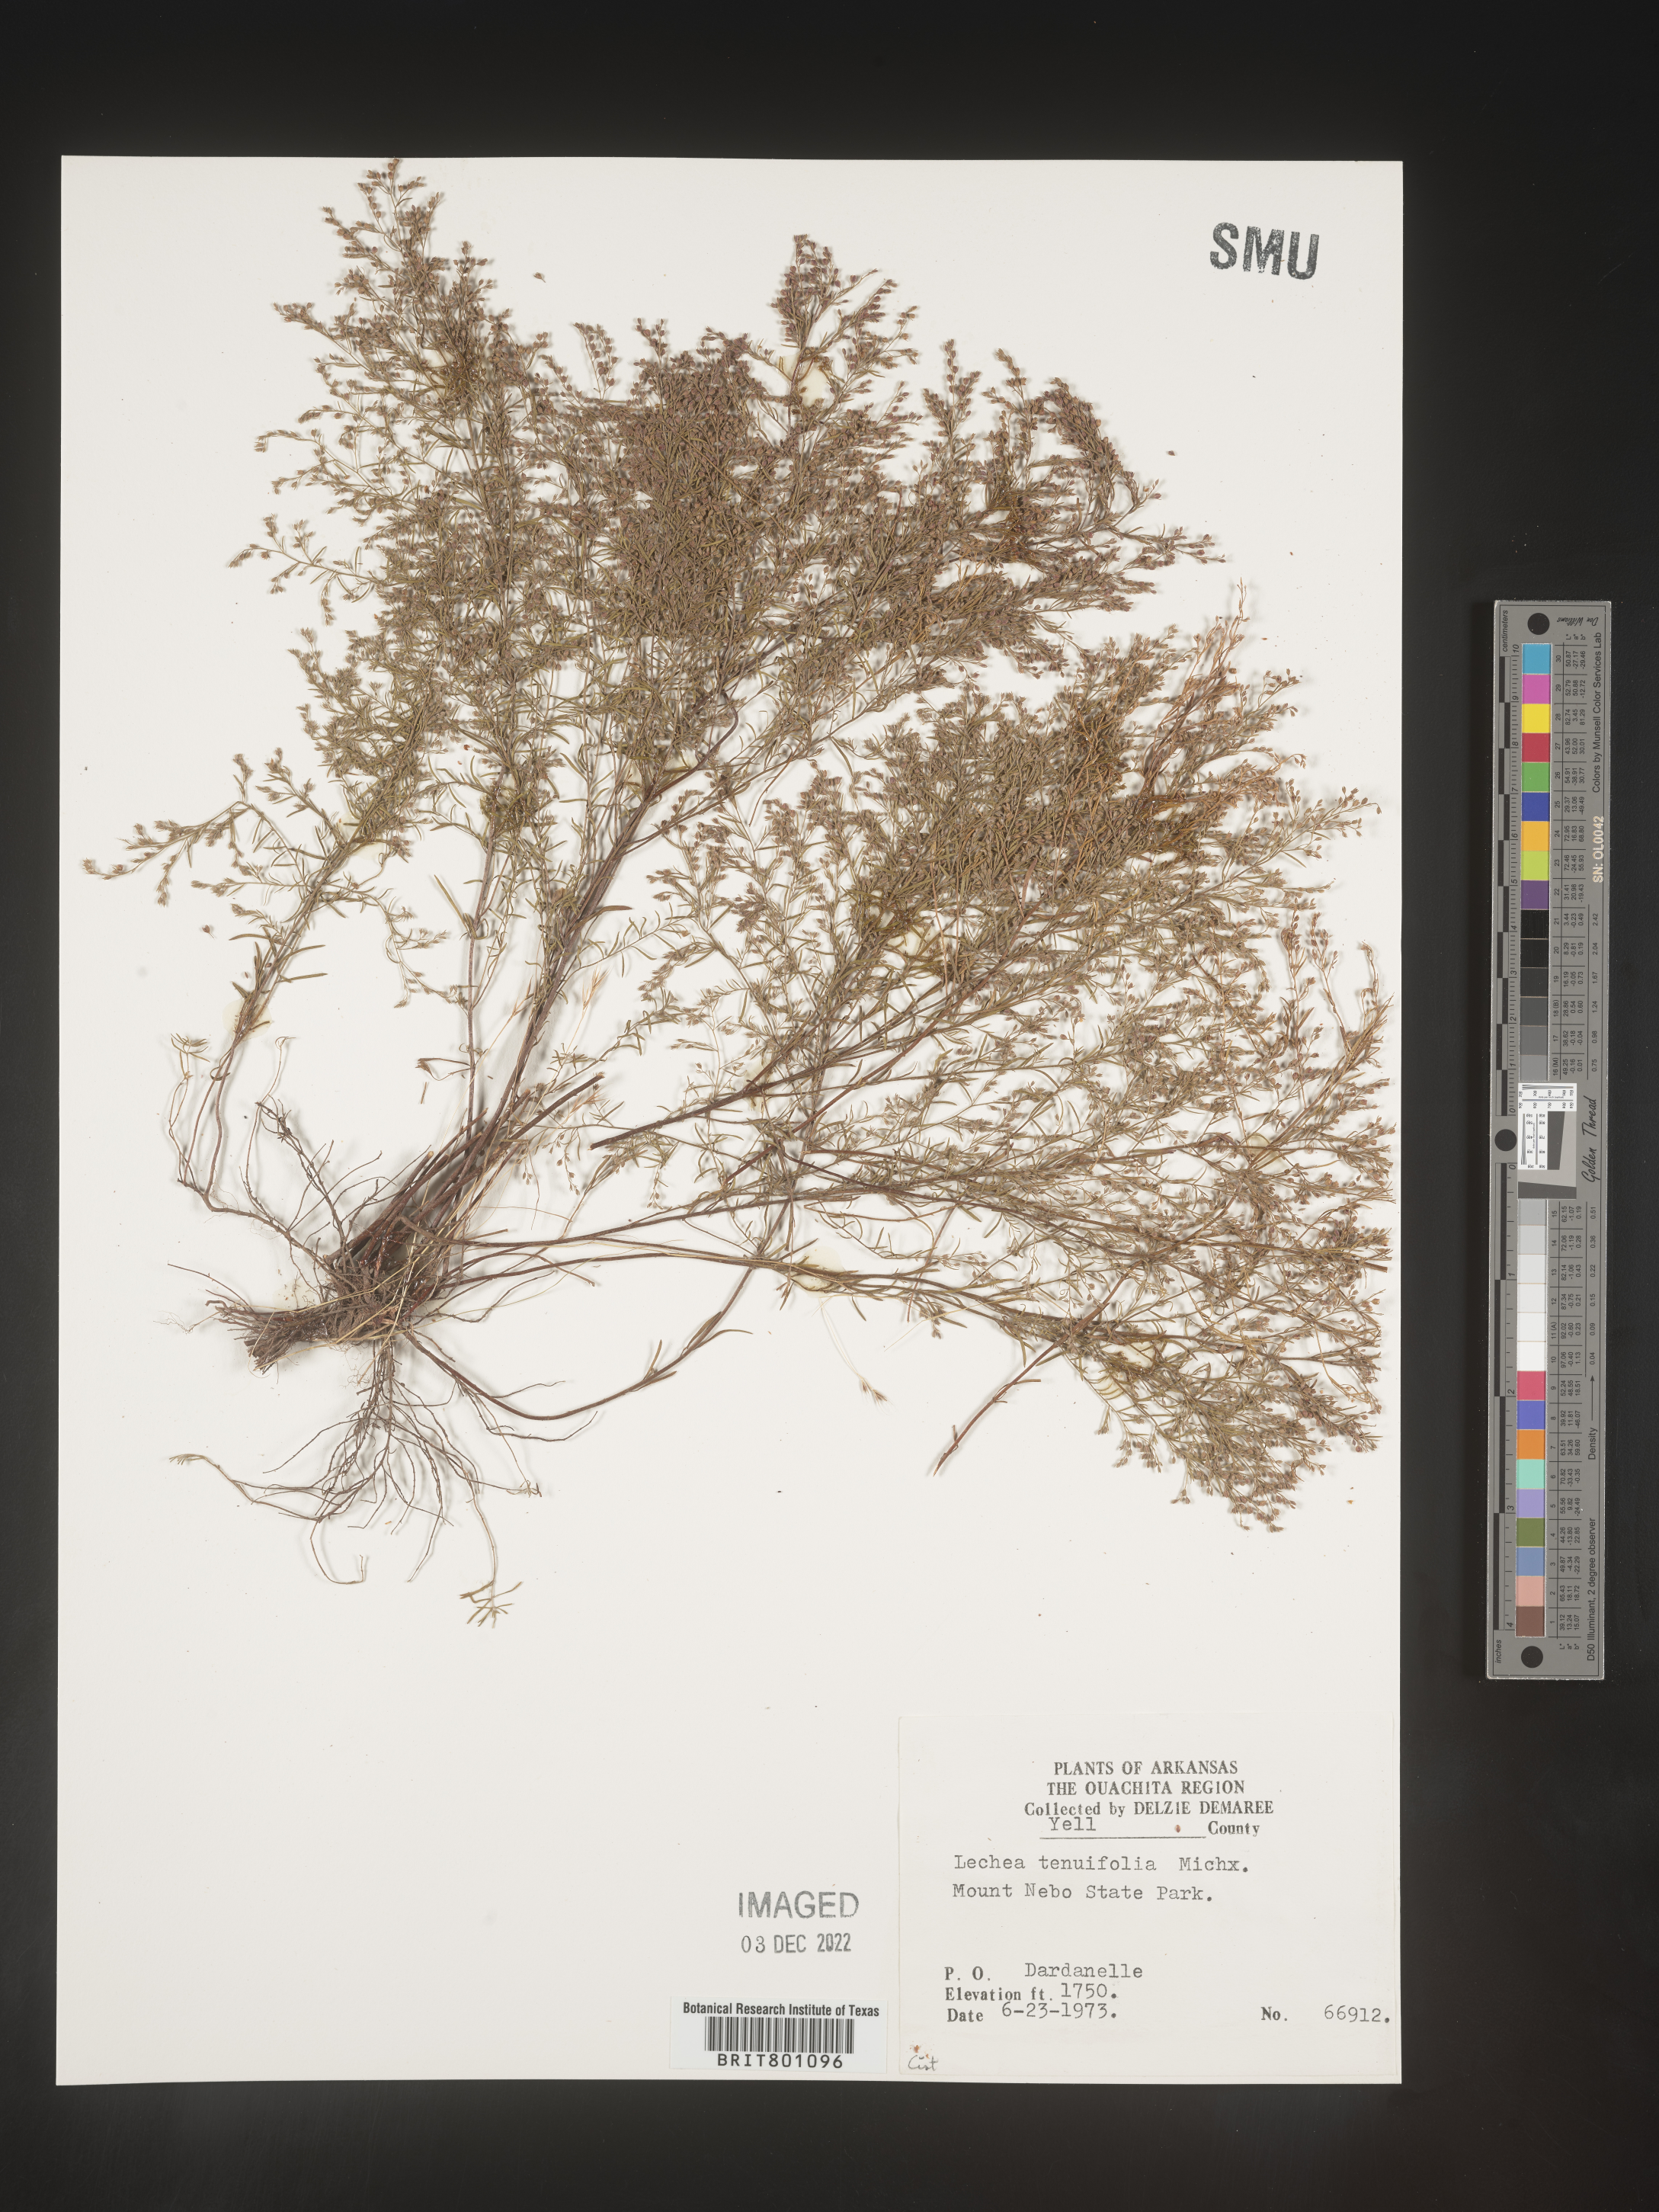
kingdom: Plantae
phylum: Tracheophyta
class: Magnoliopsida
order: Malvales
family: Cistaceae
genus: Lechea
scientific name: Lechea tenuifolia
